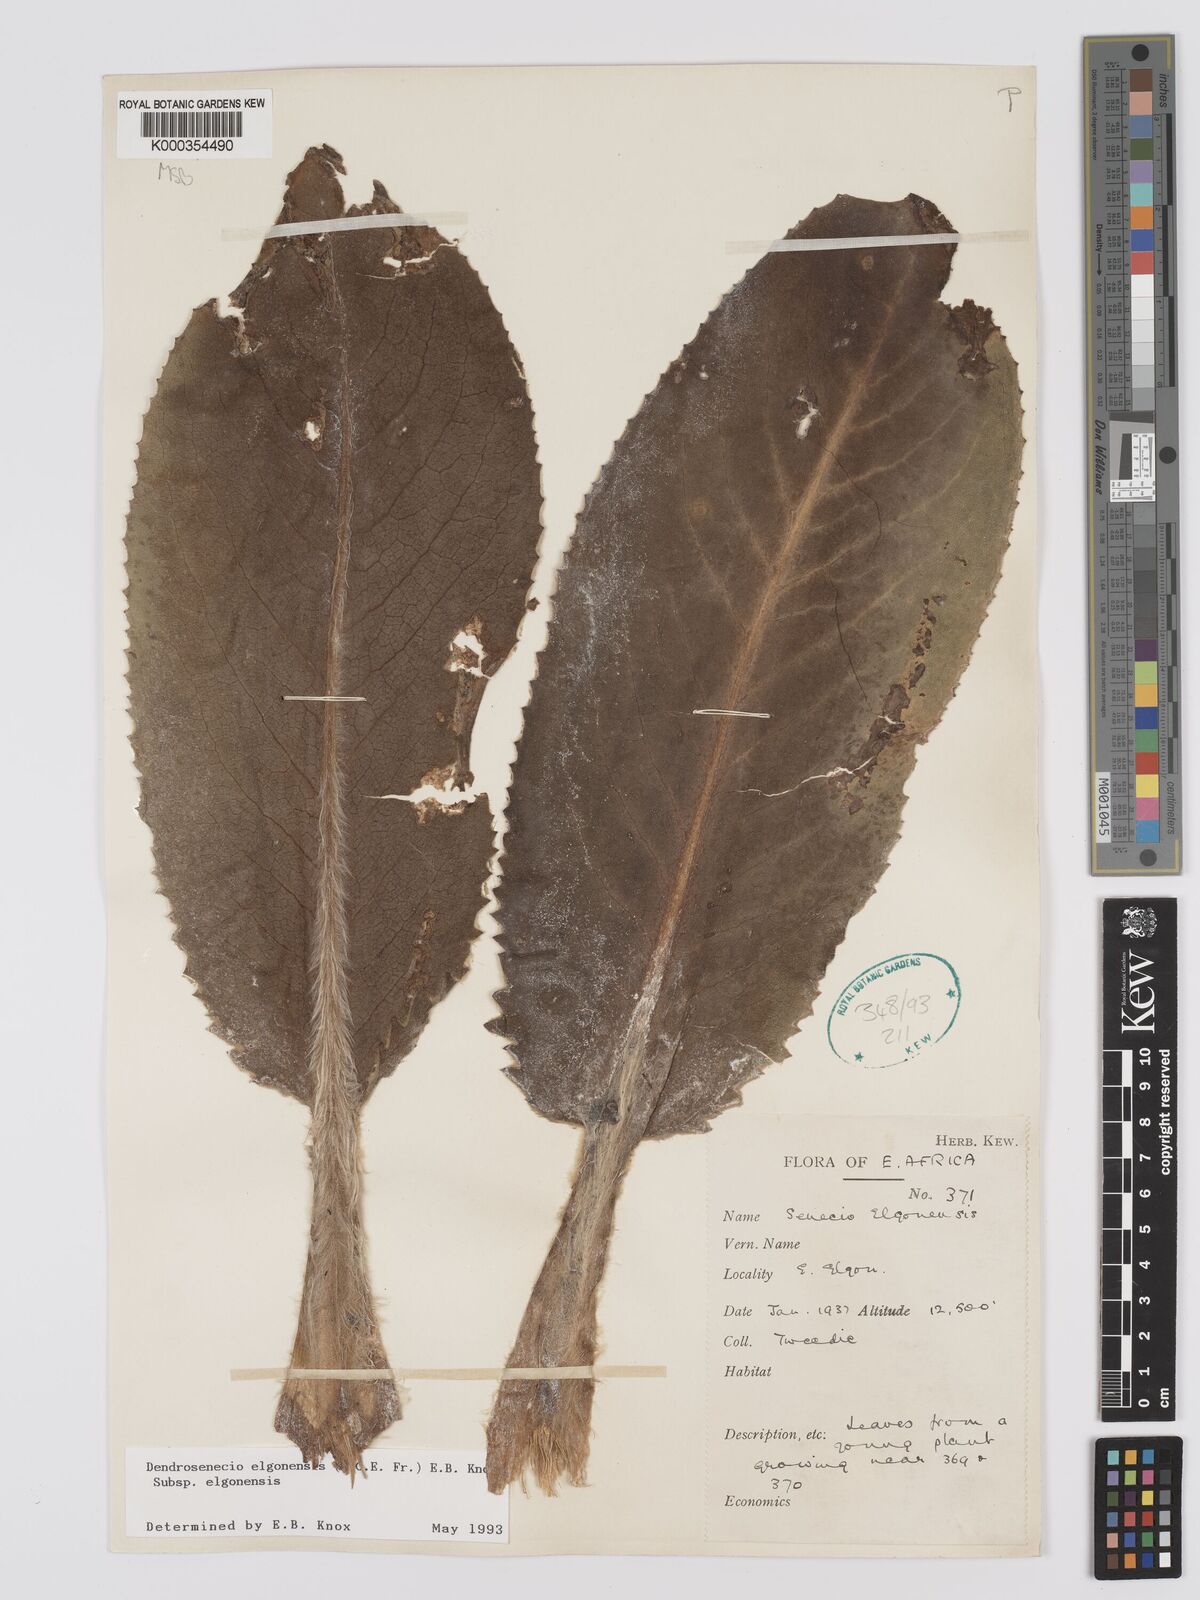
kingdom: Plantae
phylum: Tracheophyta
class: Magnoliopsida
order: Asterales
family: Asteraceae
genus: Dendrosenecio
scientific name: Dendrosenecio elgonensis
